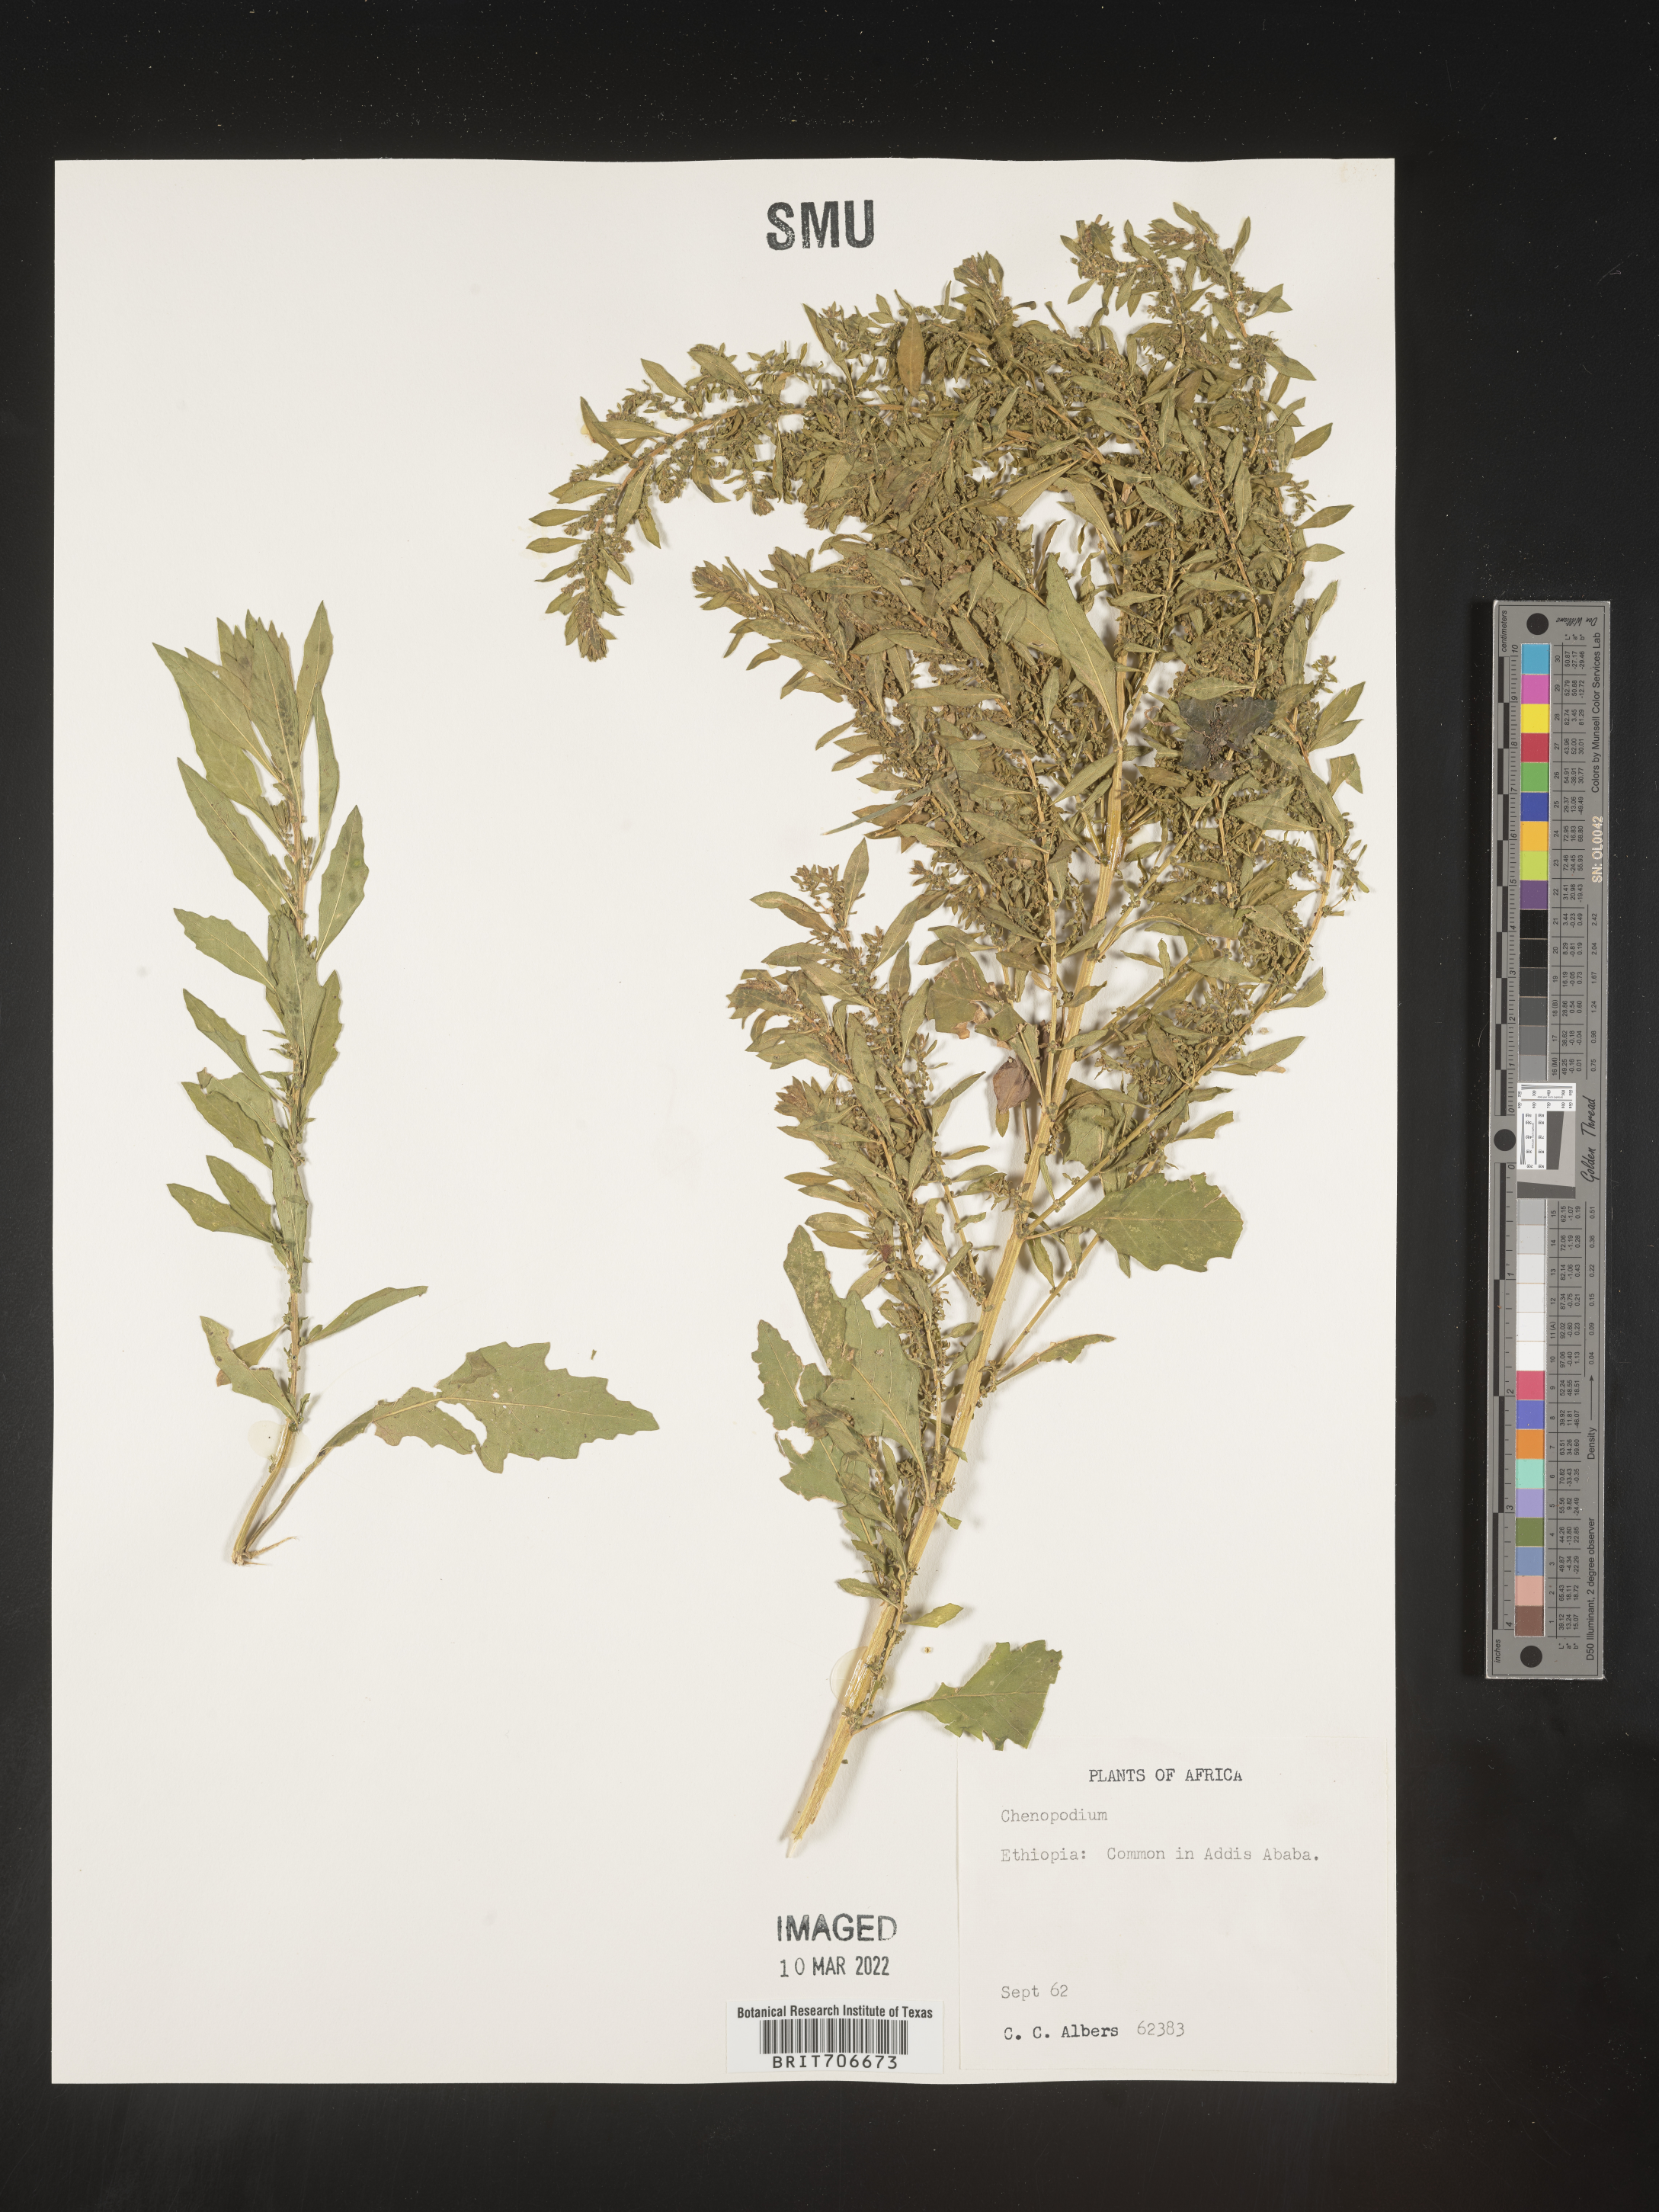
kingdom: Plantae
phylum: Tracheophyta
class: Magnoliopsida
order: Caryophyllales
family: Amaranthaceae
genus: Chenopodium
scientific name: Chenopodium
